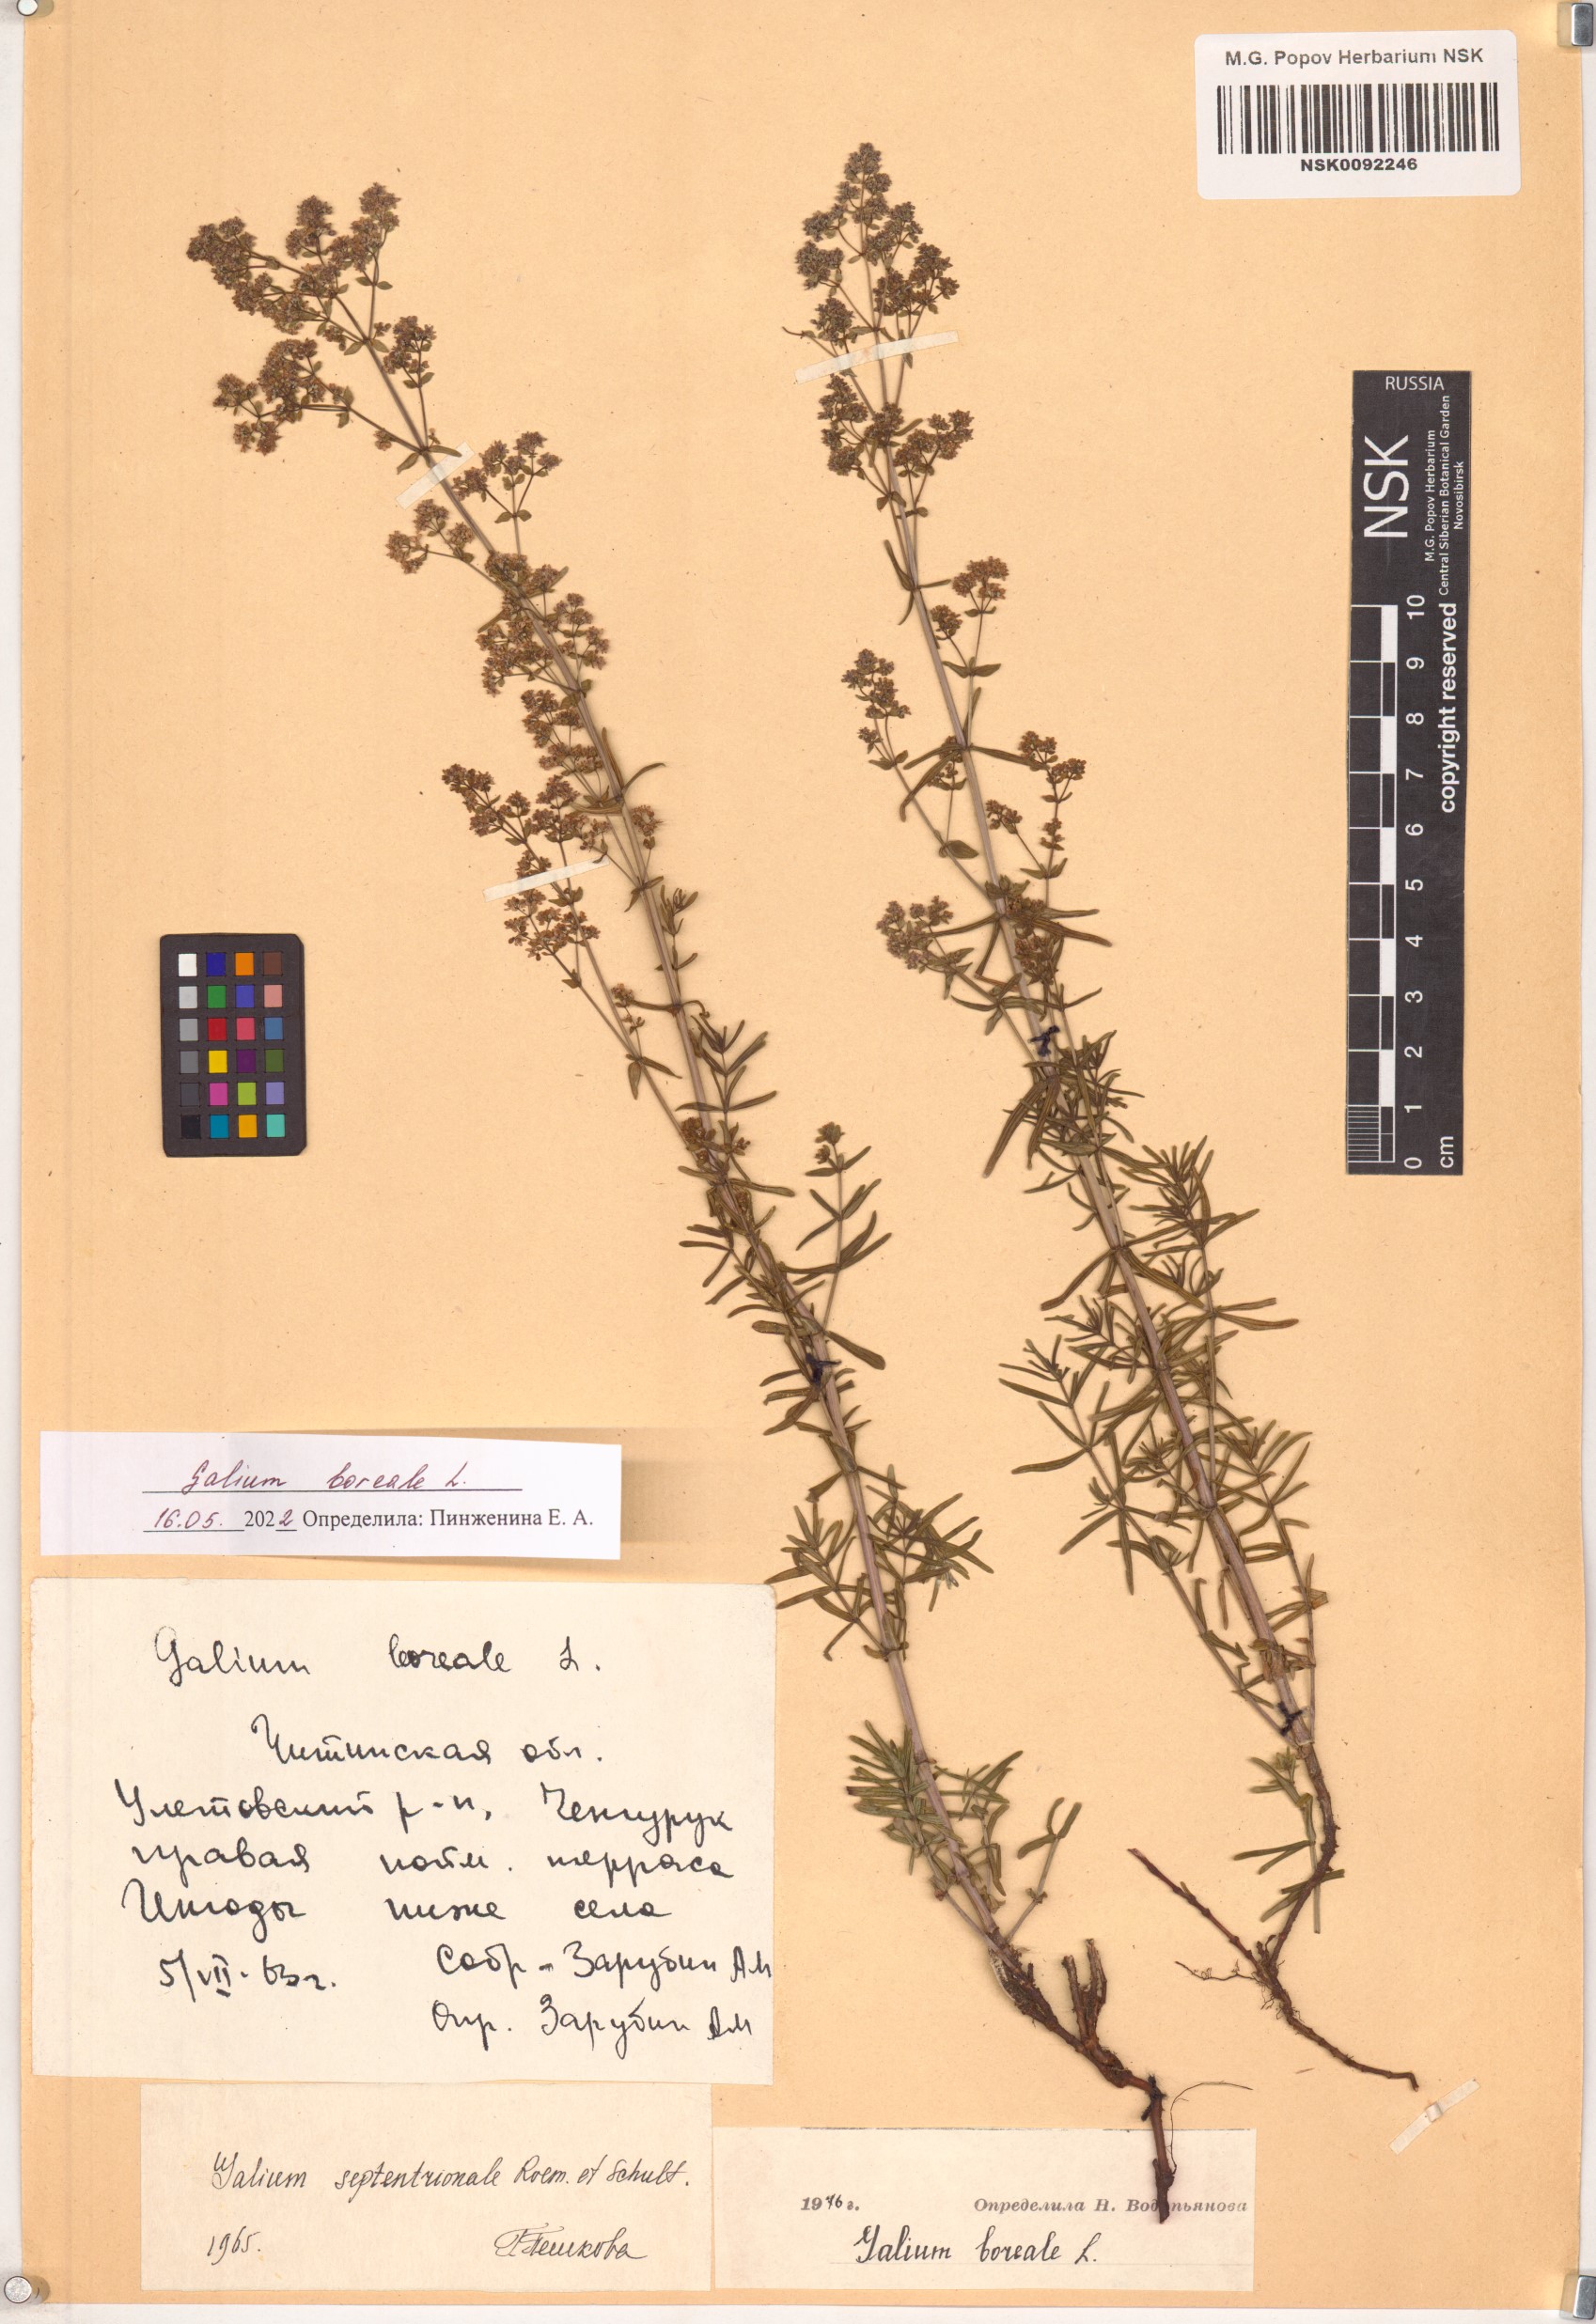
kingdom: Plantae
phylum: Tracheophyta
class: Magnoliopsida
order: Gentianales
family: Rubiaceae
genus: Galium
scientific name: Galium boreale
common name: Northern bedstraw
